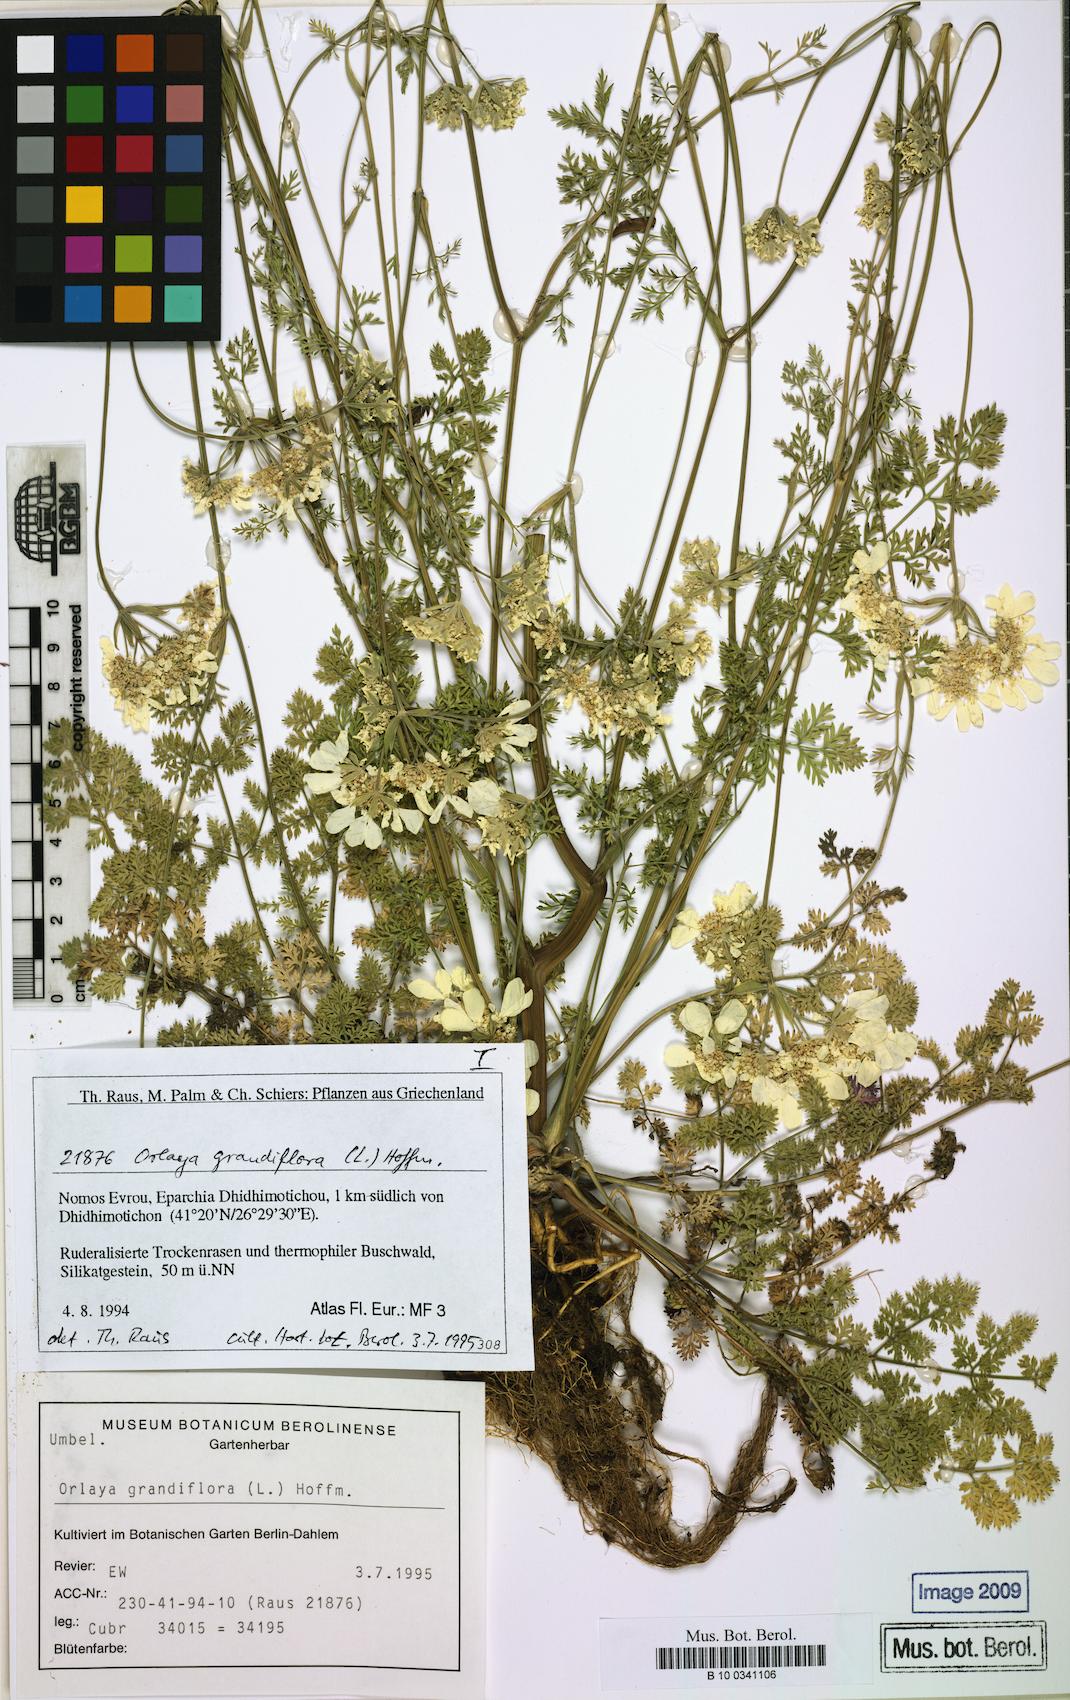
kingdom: Plantae
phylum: Tracheophyta
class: Magnoliopsida
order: Apiales
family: Apiaceae
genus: Orlaya
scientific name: Orlaya grandiflora
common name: White lace flower
